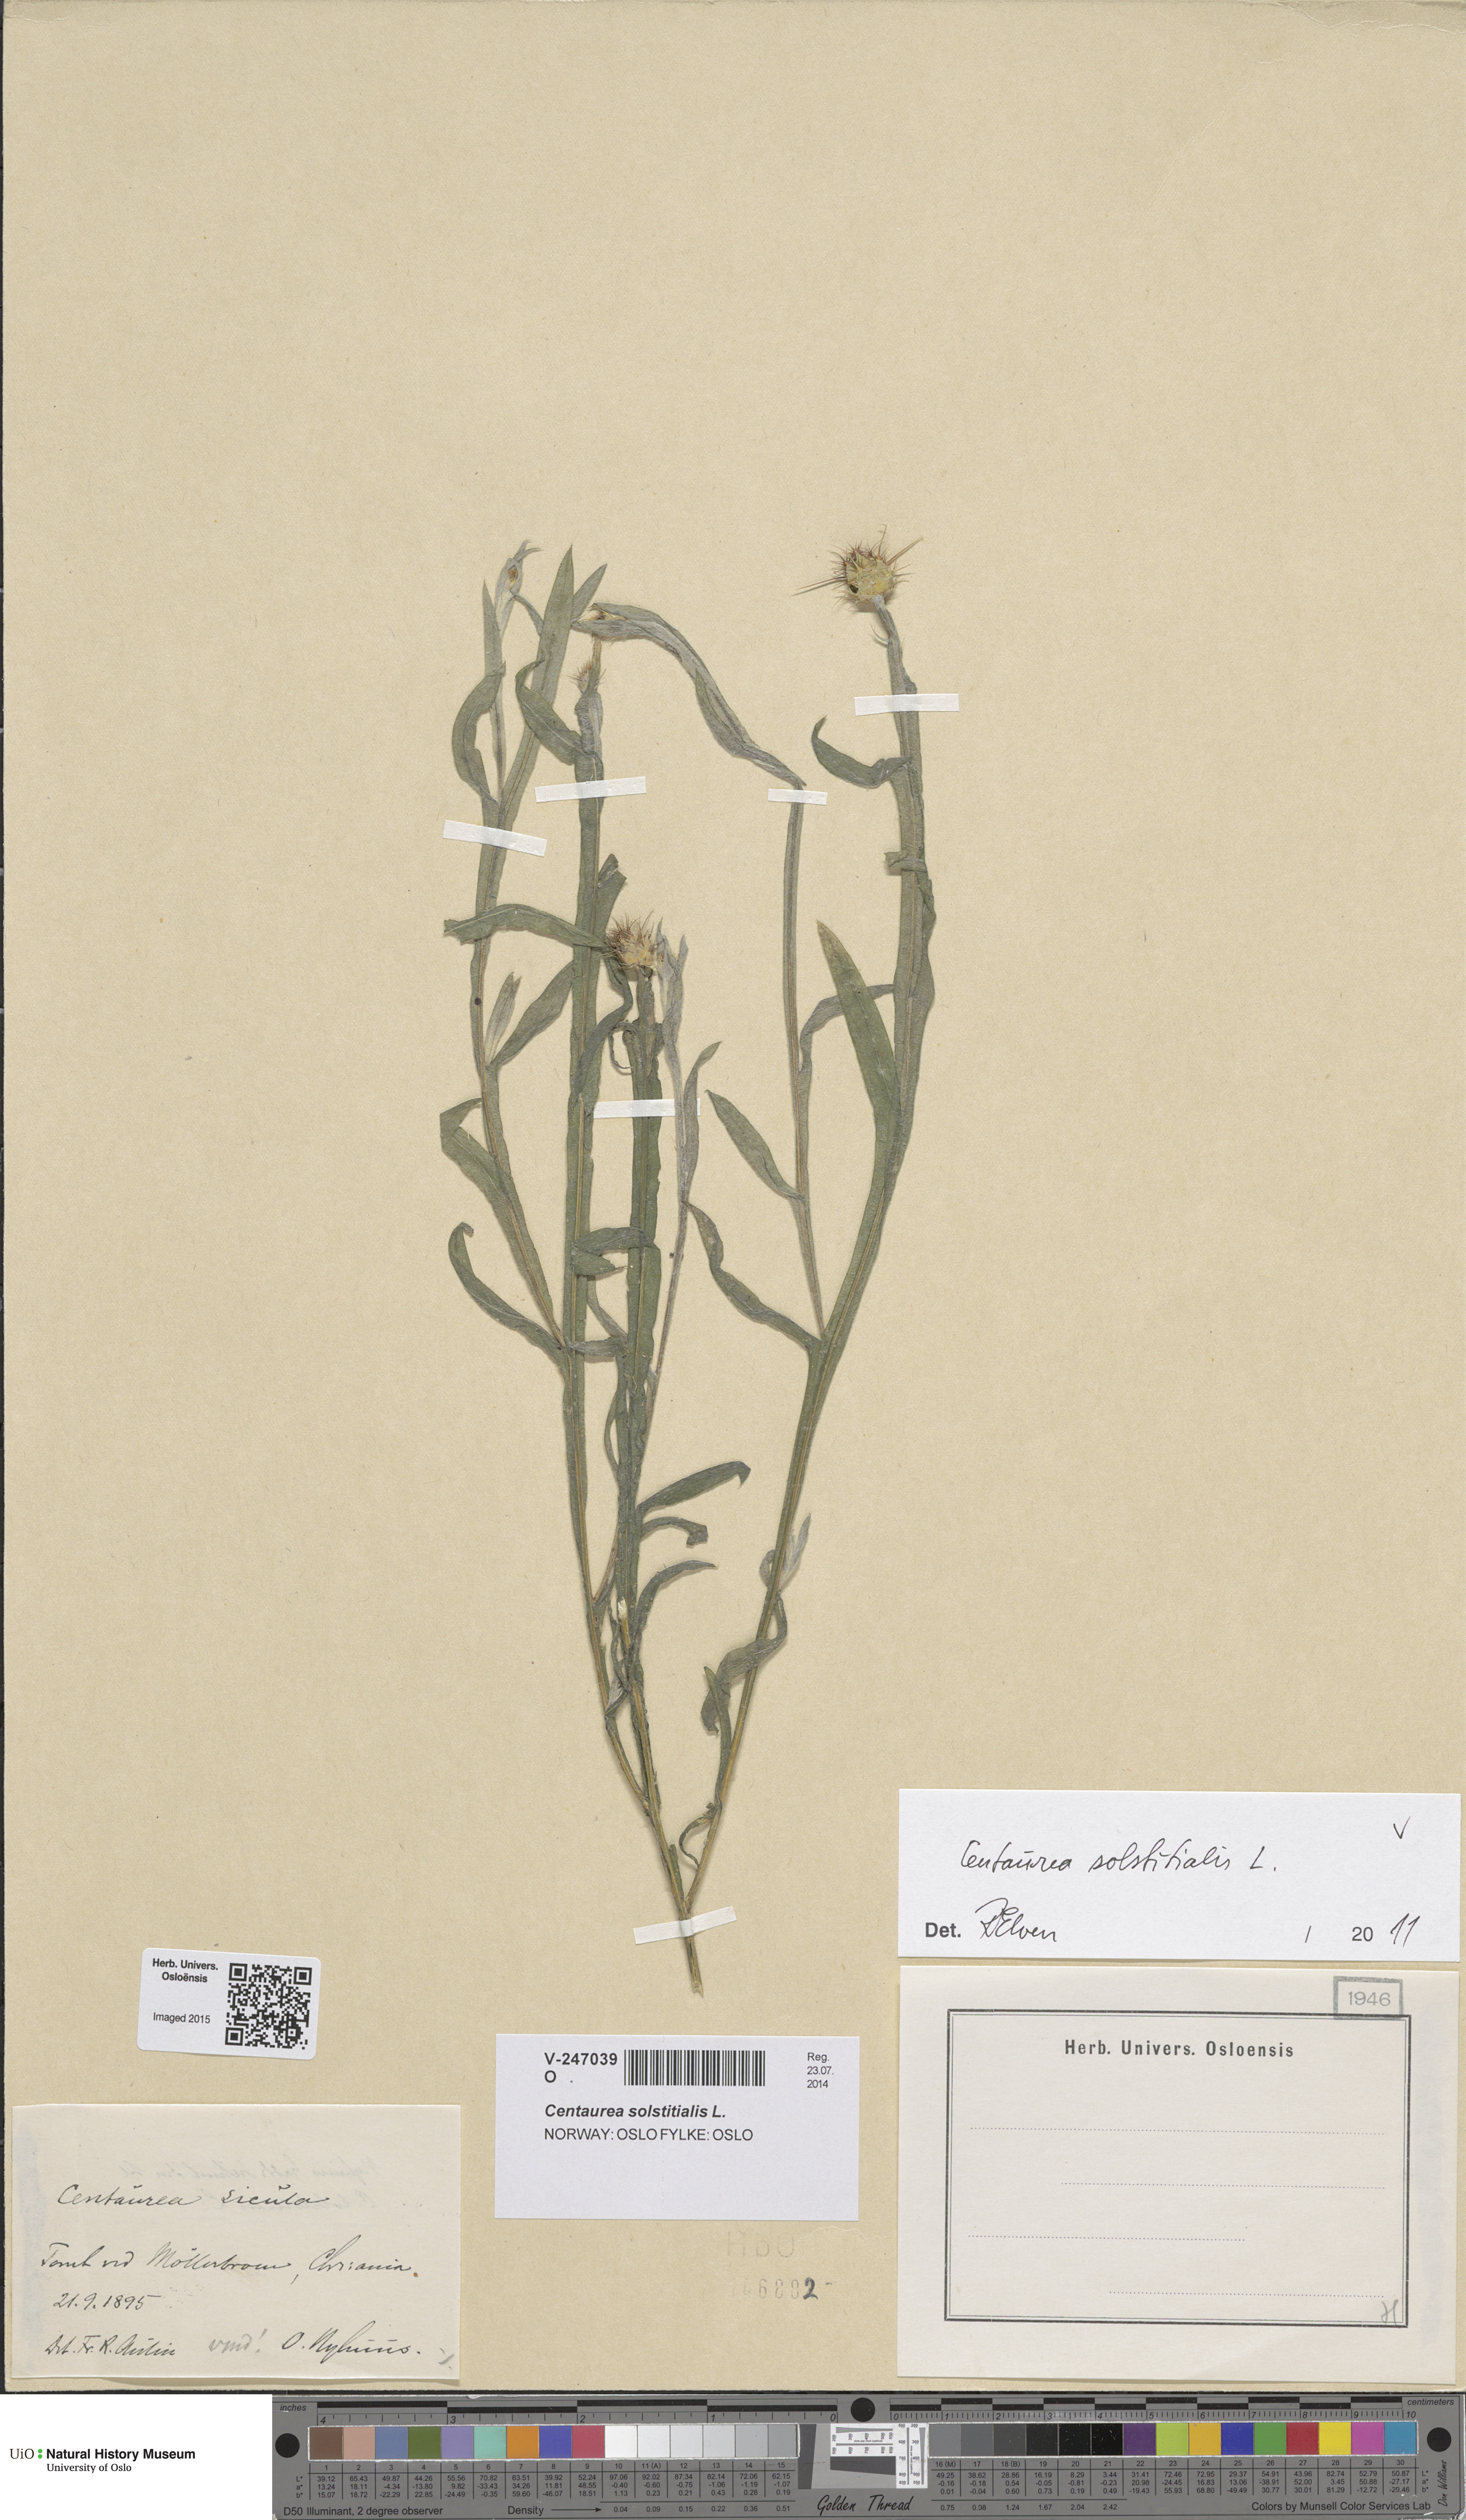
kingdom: Plantae
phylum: Tracheophyta
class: Magnoliopsida
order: Asterales
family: Asteraceae
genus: Centaurea
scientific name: Centaurea solstitialis
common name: Yellow star-thistle
